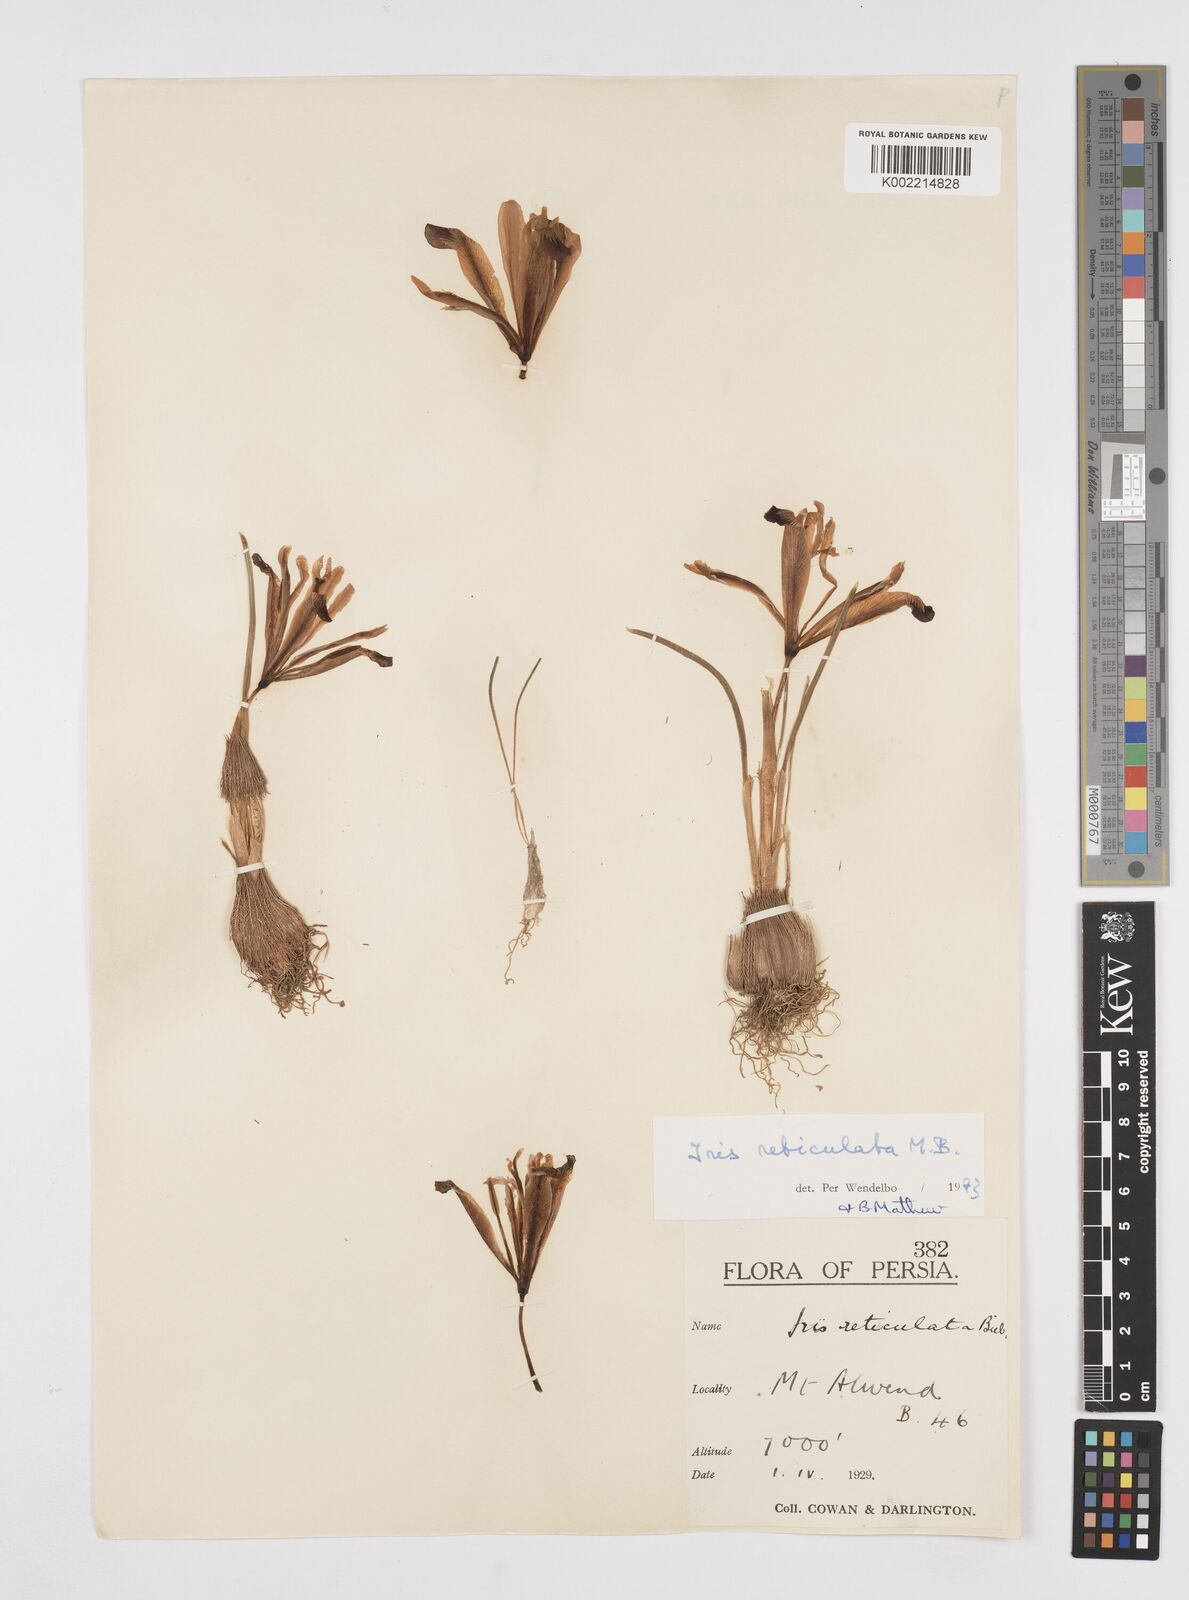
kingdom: Plantae
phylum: Tracheophyta
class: Liliopsida
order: Asparagales
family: Iridaceae
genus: Iris
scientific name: Iris reticulata
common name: Netted iris
